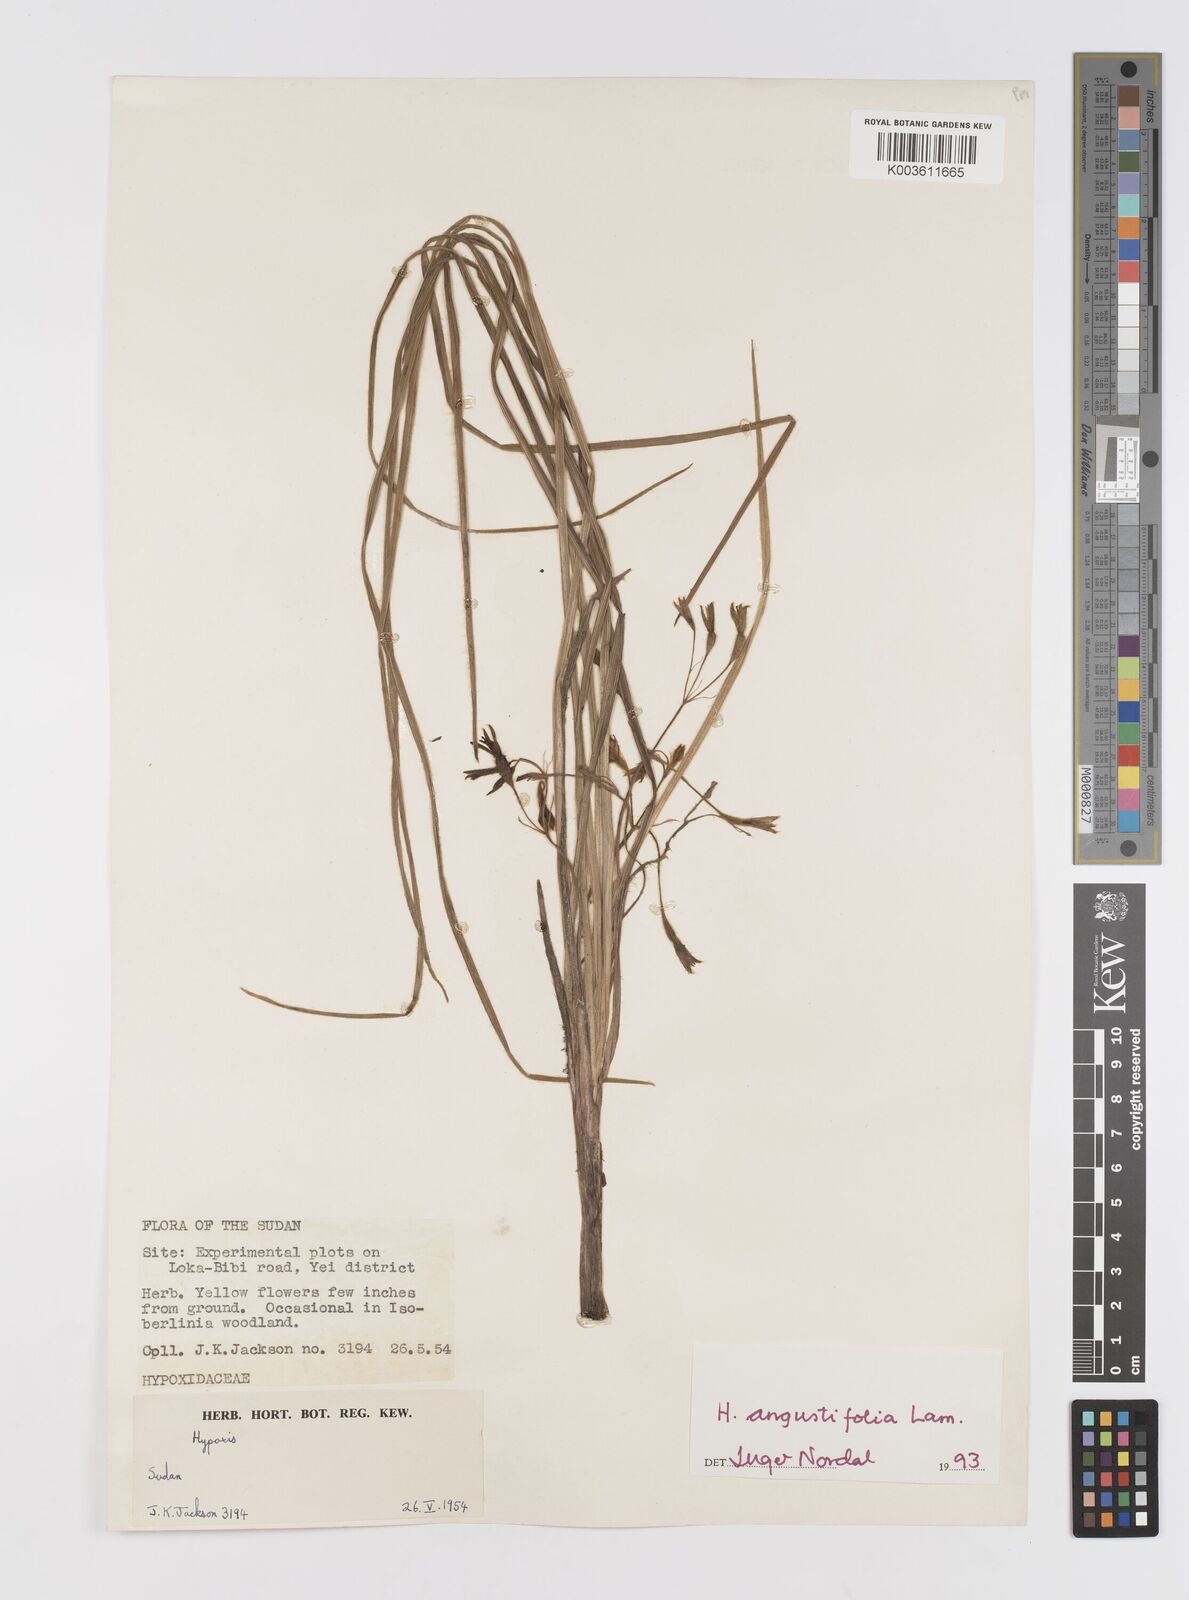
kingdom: Plantae
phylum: Tracheophyta
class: Liliopsida
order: Asparagales
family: Hypoxidaceae
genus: Hypoxis
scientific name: Hypoxis angustifolia
